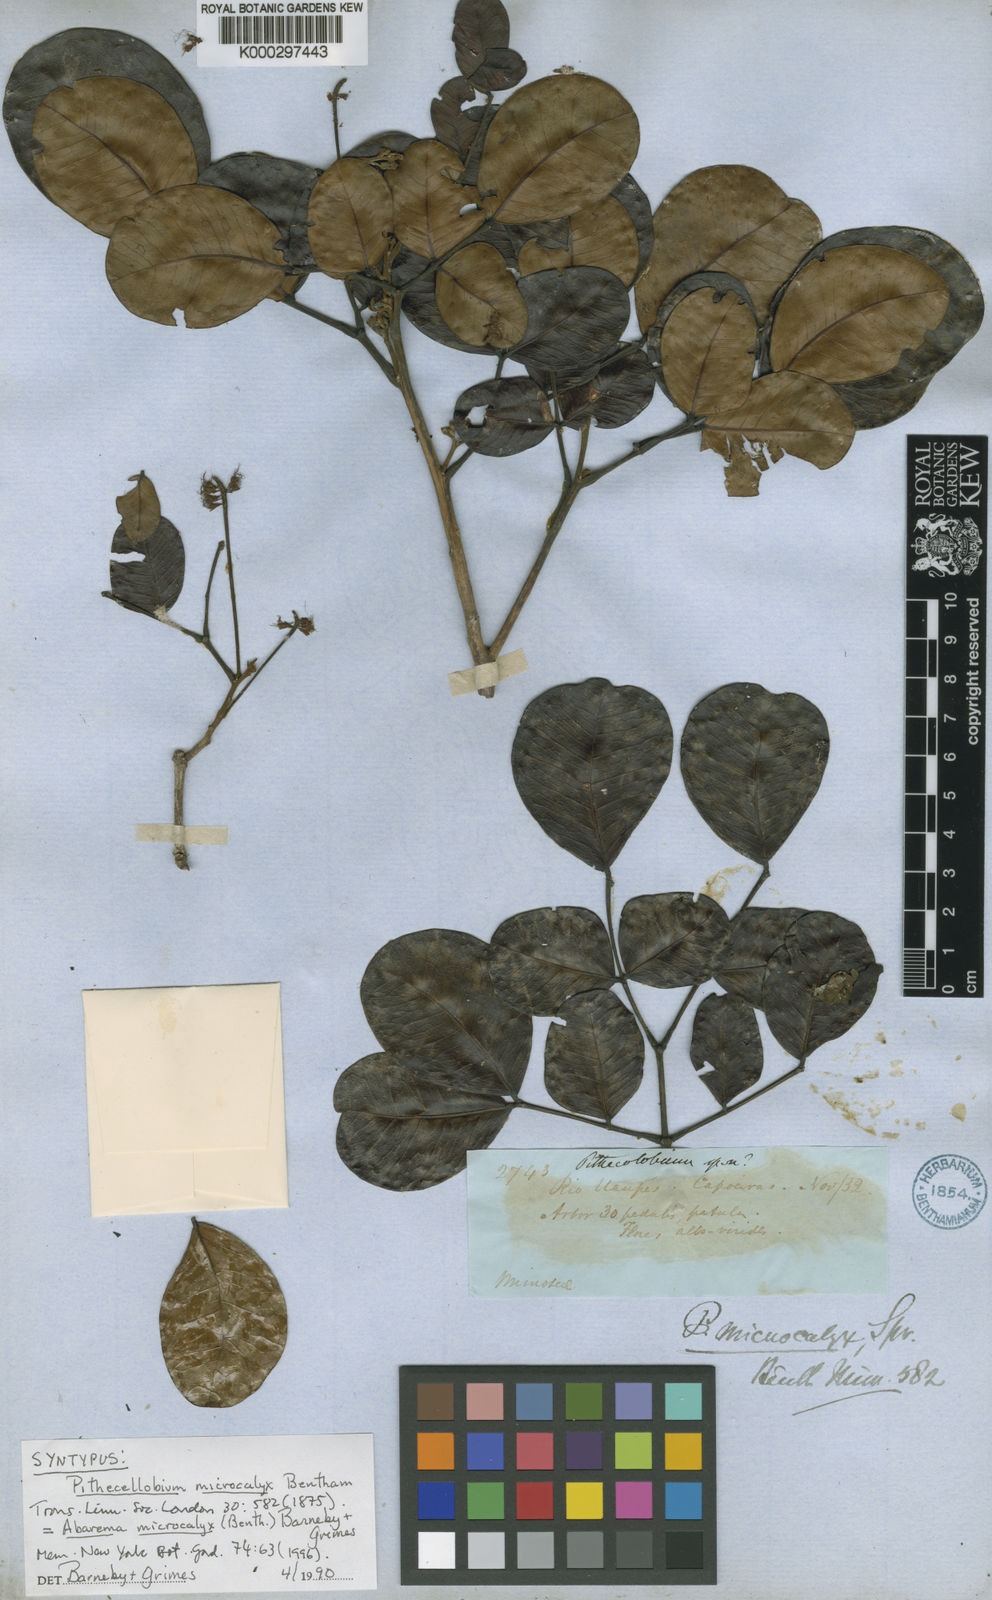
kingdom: Plantae
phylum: Tracheophyta
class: Magnoliopsida
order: Fabales
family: Fabaceae
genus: Jupunba
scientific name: Jupunba microcalyx
